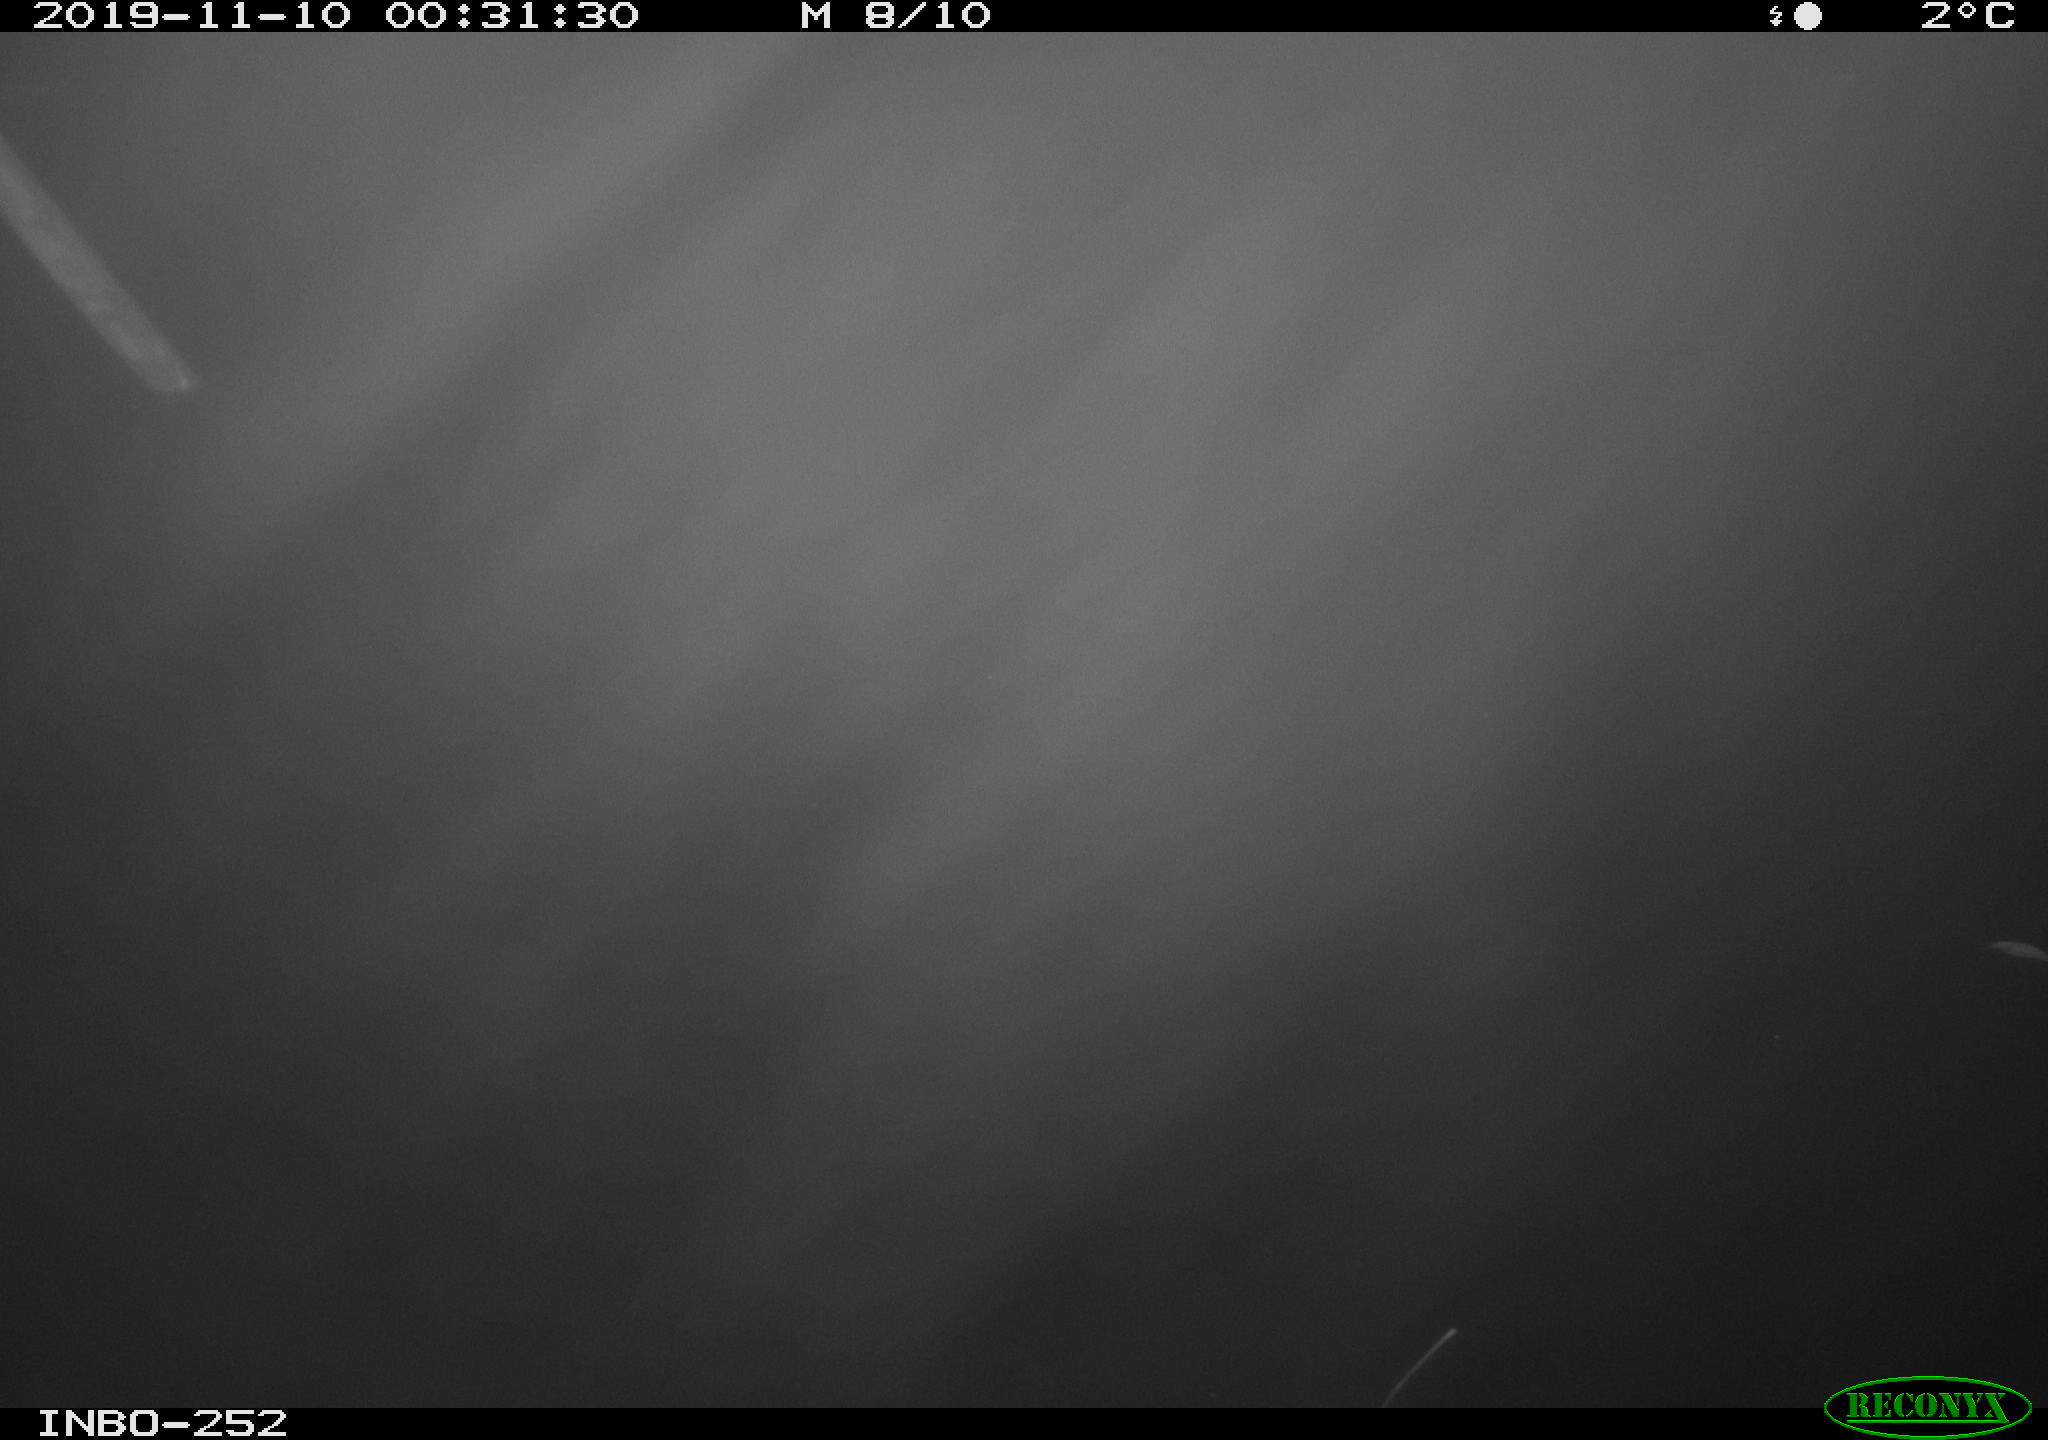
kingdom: Animalia
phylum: Chordata
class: Aves
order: Anseriformes
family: Anatidae
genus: Anas
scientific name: Anas platyrhynchos
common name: Mallard
